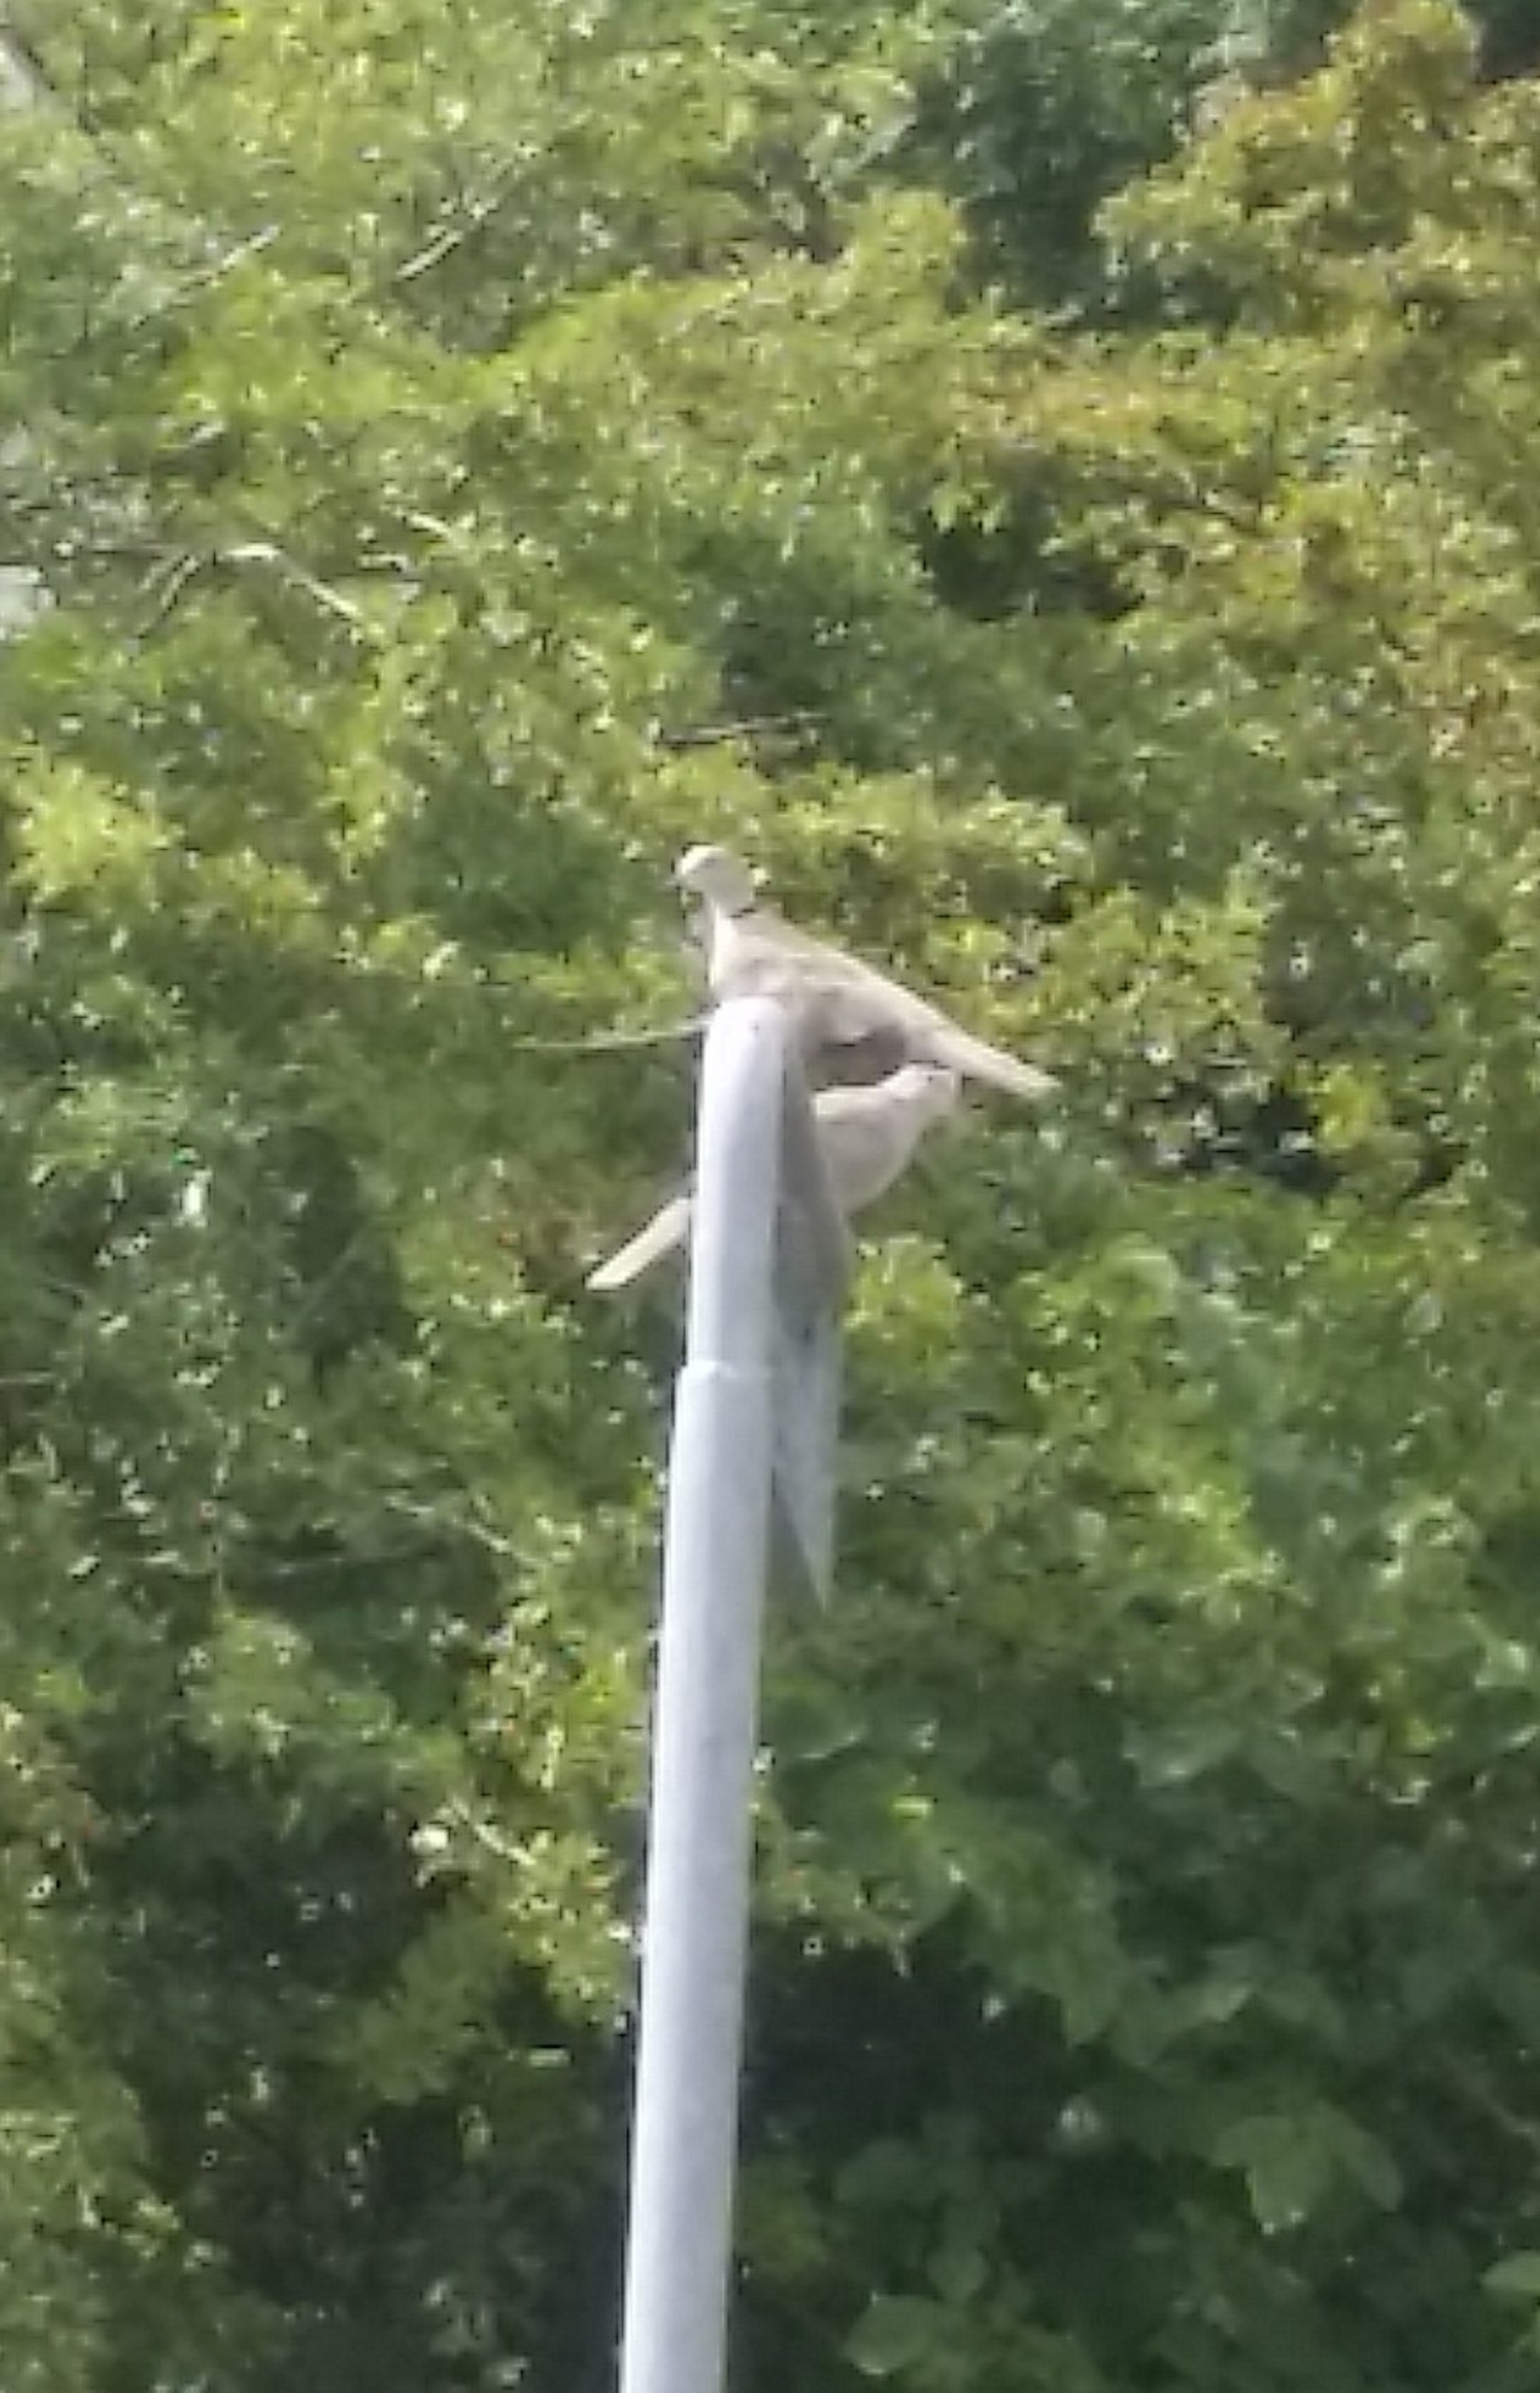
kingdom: Animalia
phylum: Chordata
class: Aves
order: Columbiformes
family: Columbidae
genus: Streptopelia
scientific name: Streptopelia decaocto
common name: Tyrkerdue
